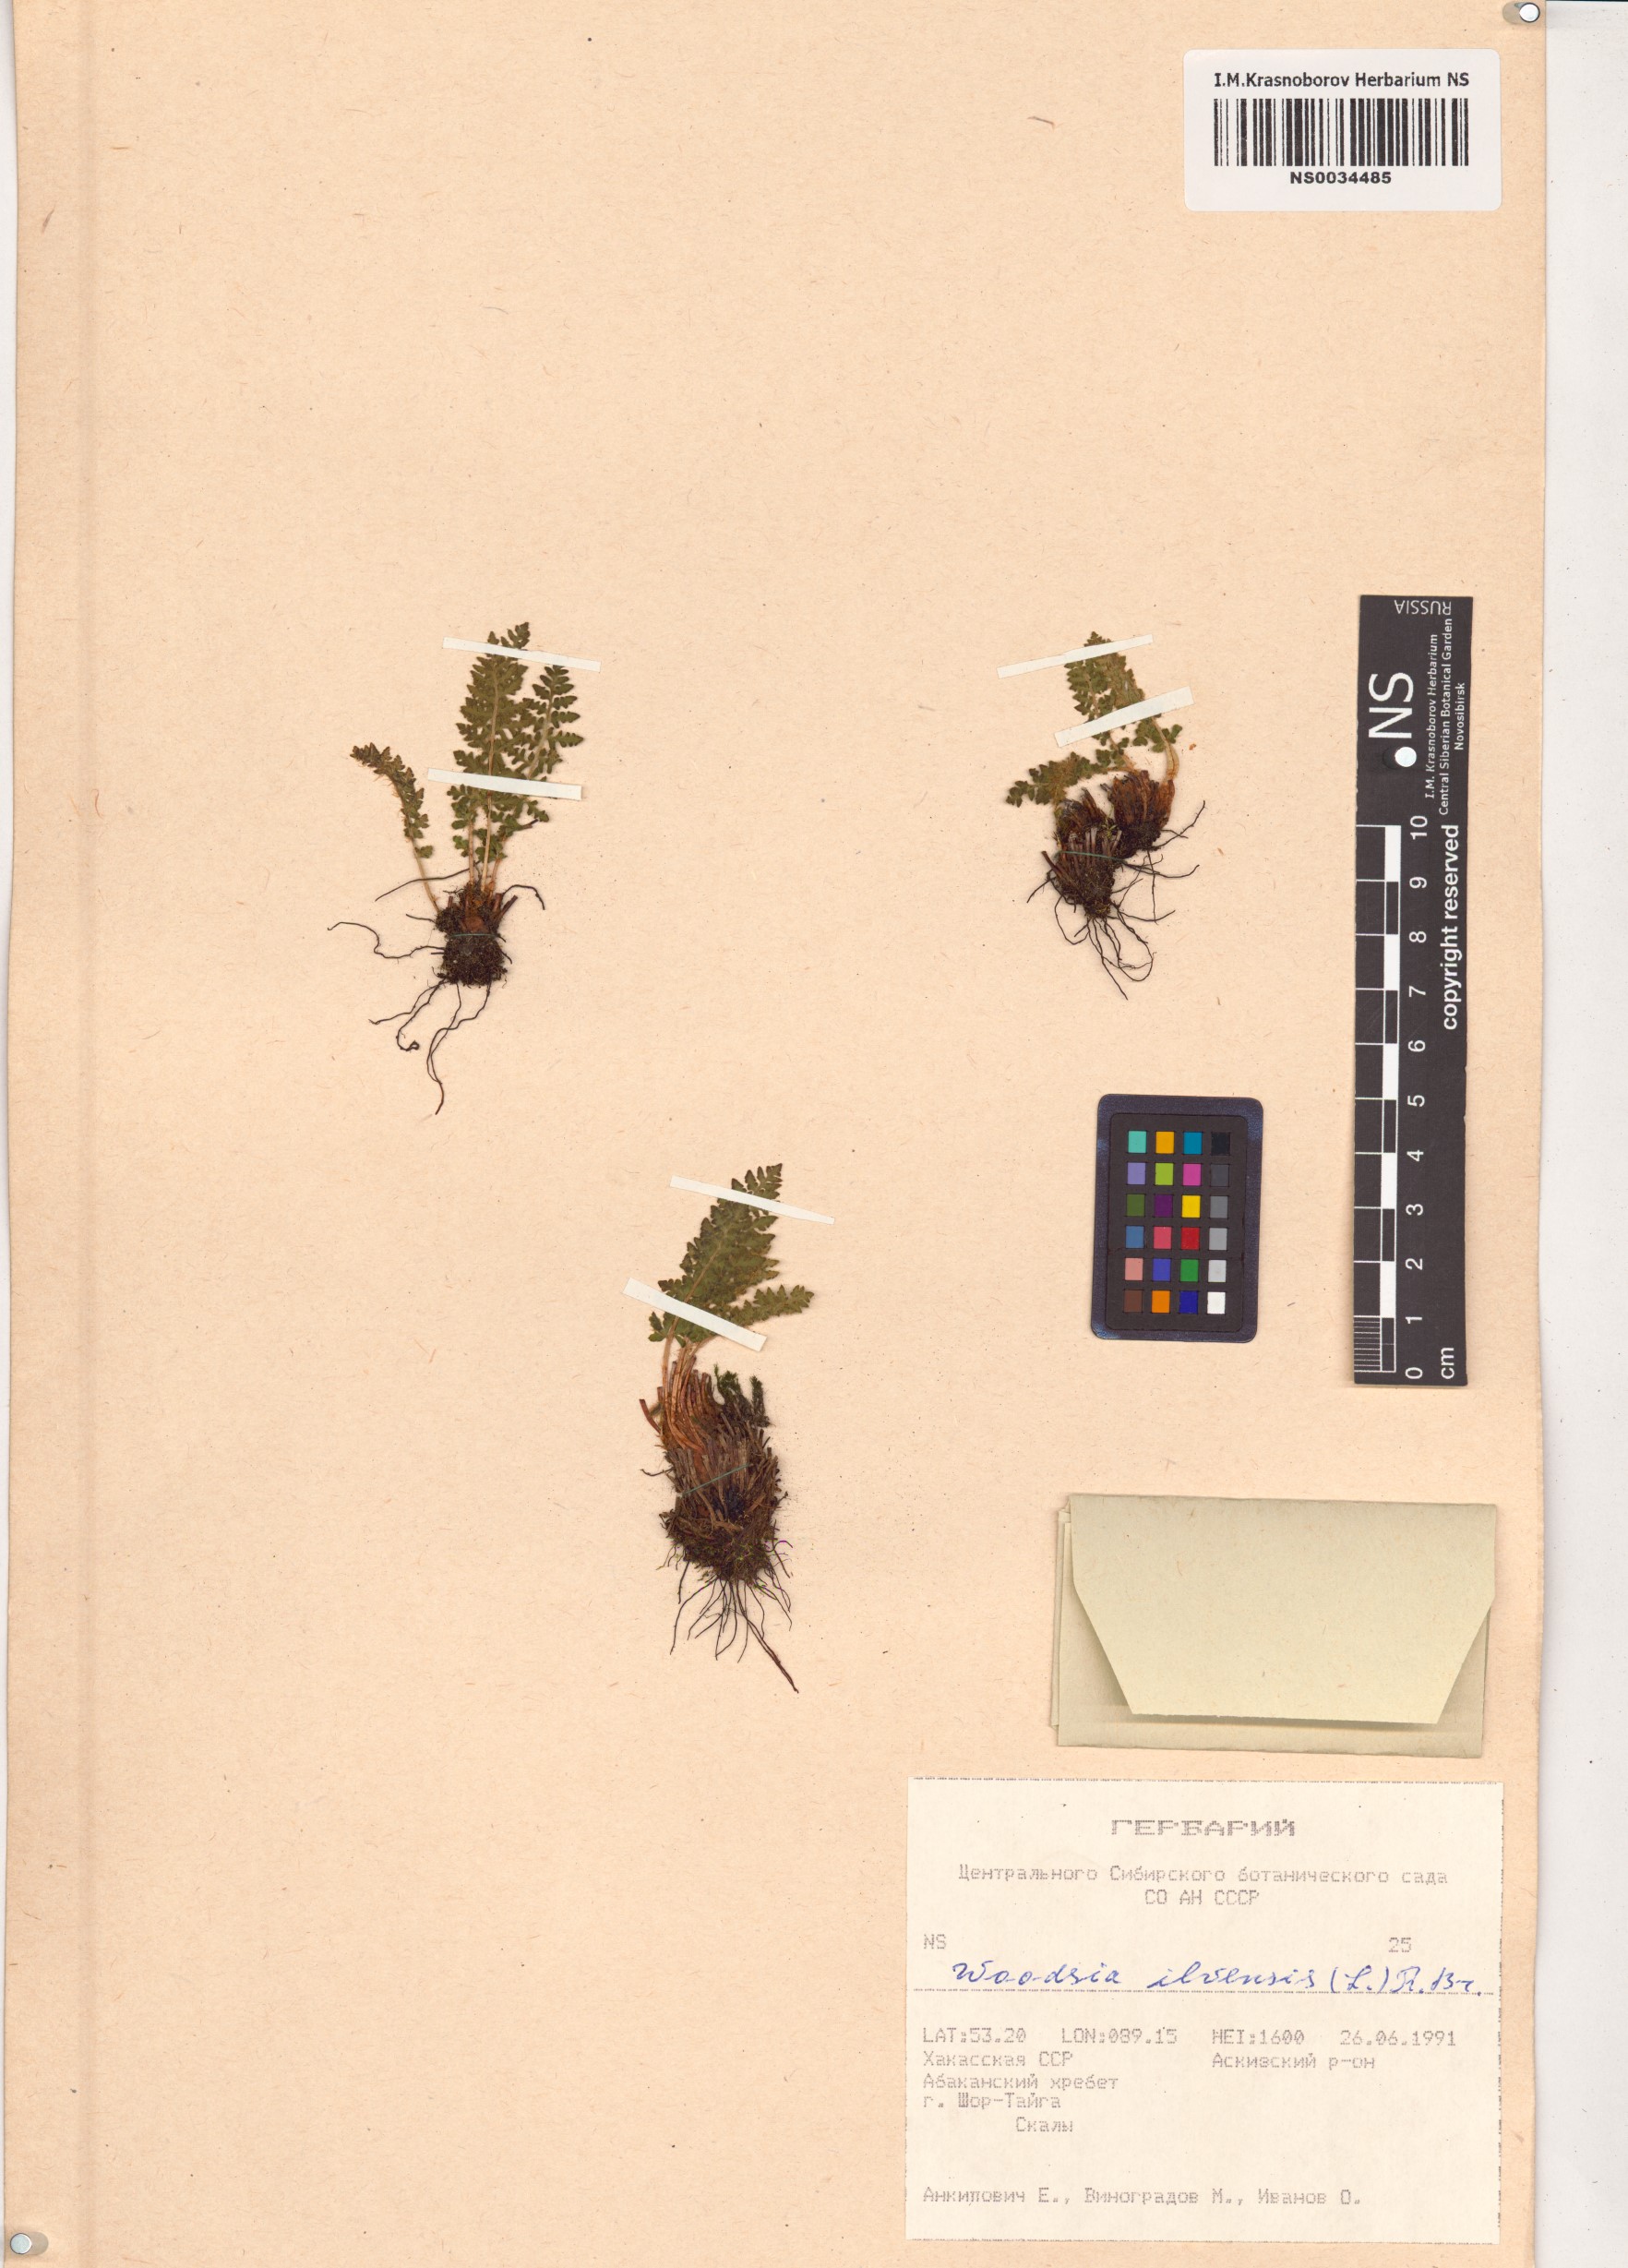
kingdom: Plantae
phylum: Tracheophyta
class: Polypodiopsida
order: Polypodiales
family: Woodsiaceae
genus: Woodsia
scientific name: Woodsia ilvensis
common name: Fragrant woodsia
